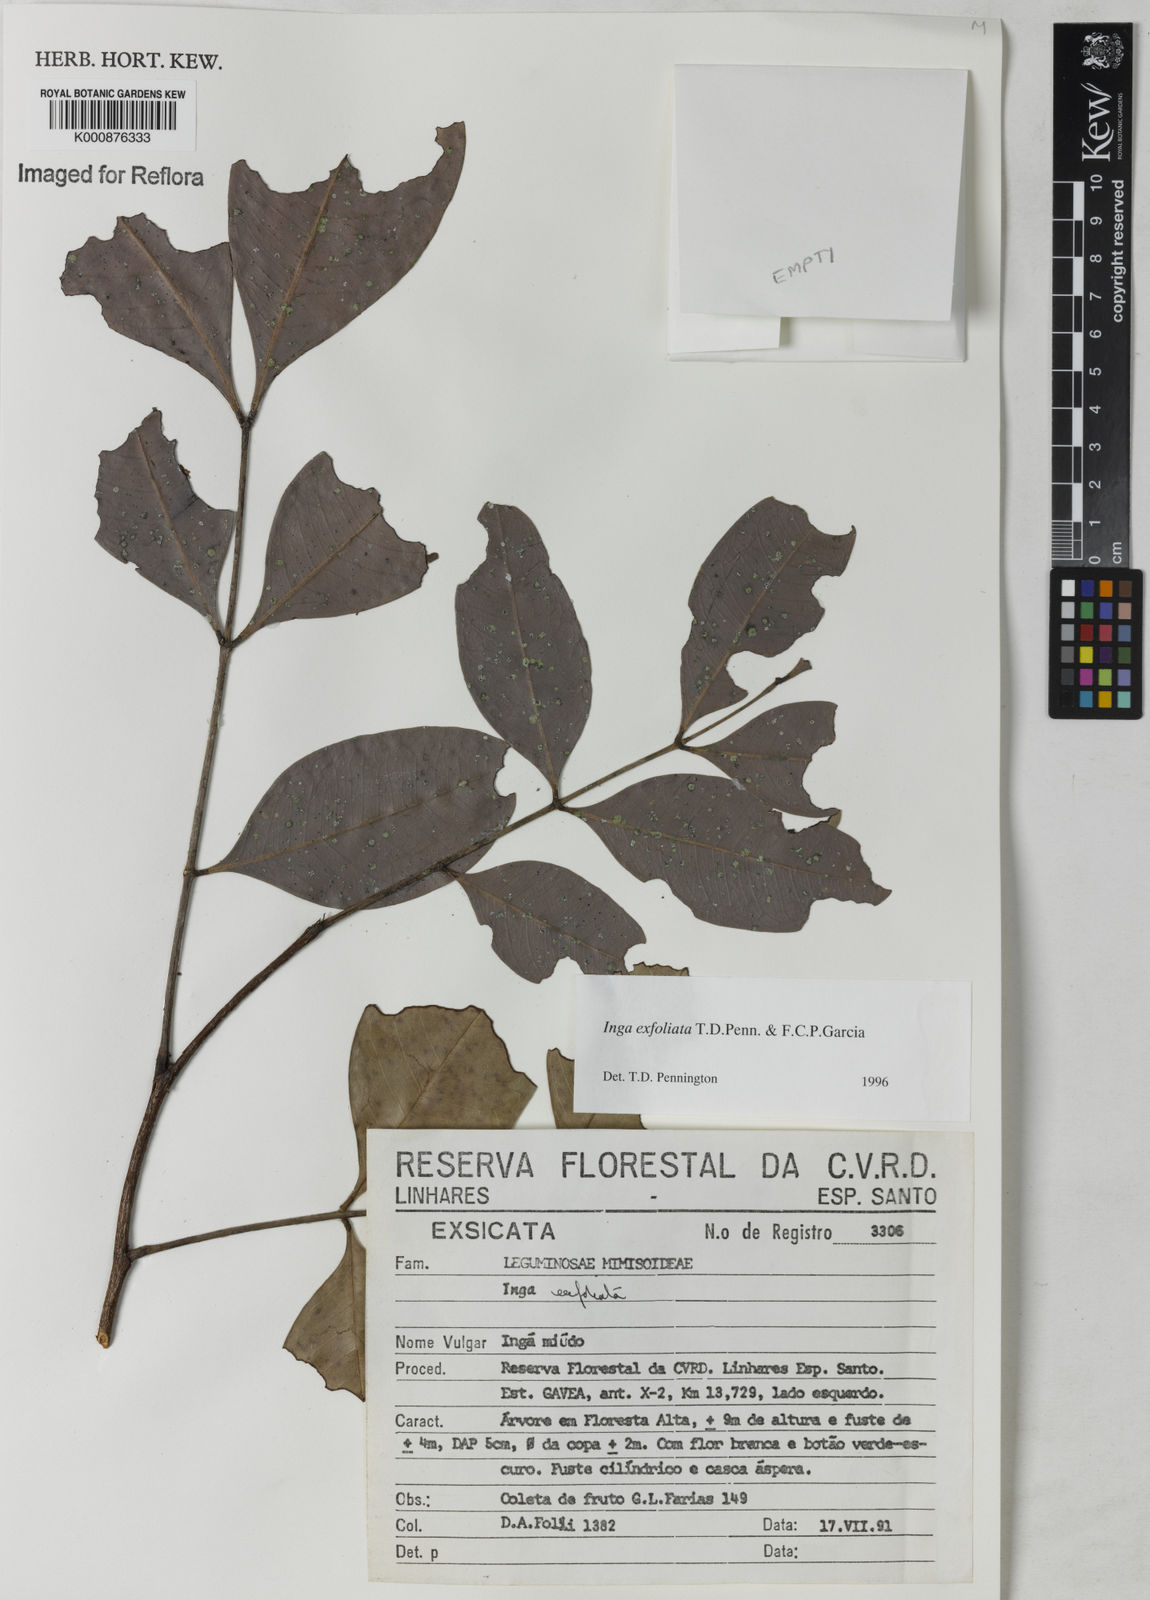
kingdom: Plantae
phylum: Tracheophyta
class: Magnoliopsida
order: Fabales
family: Fabaceae
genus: Inga
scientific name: Inga
